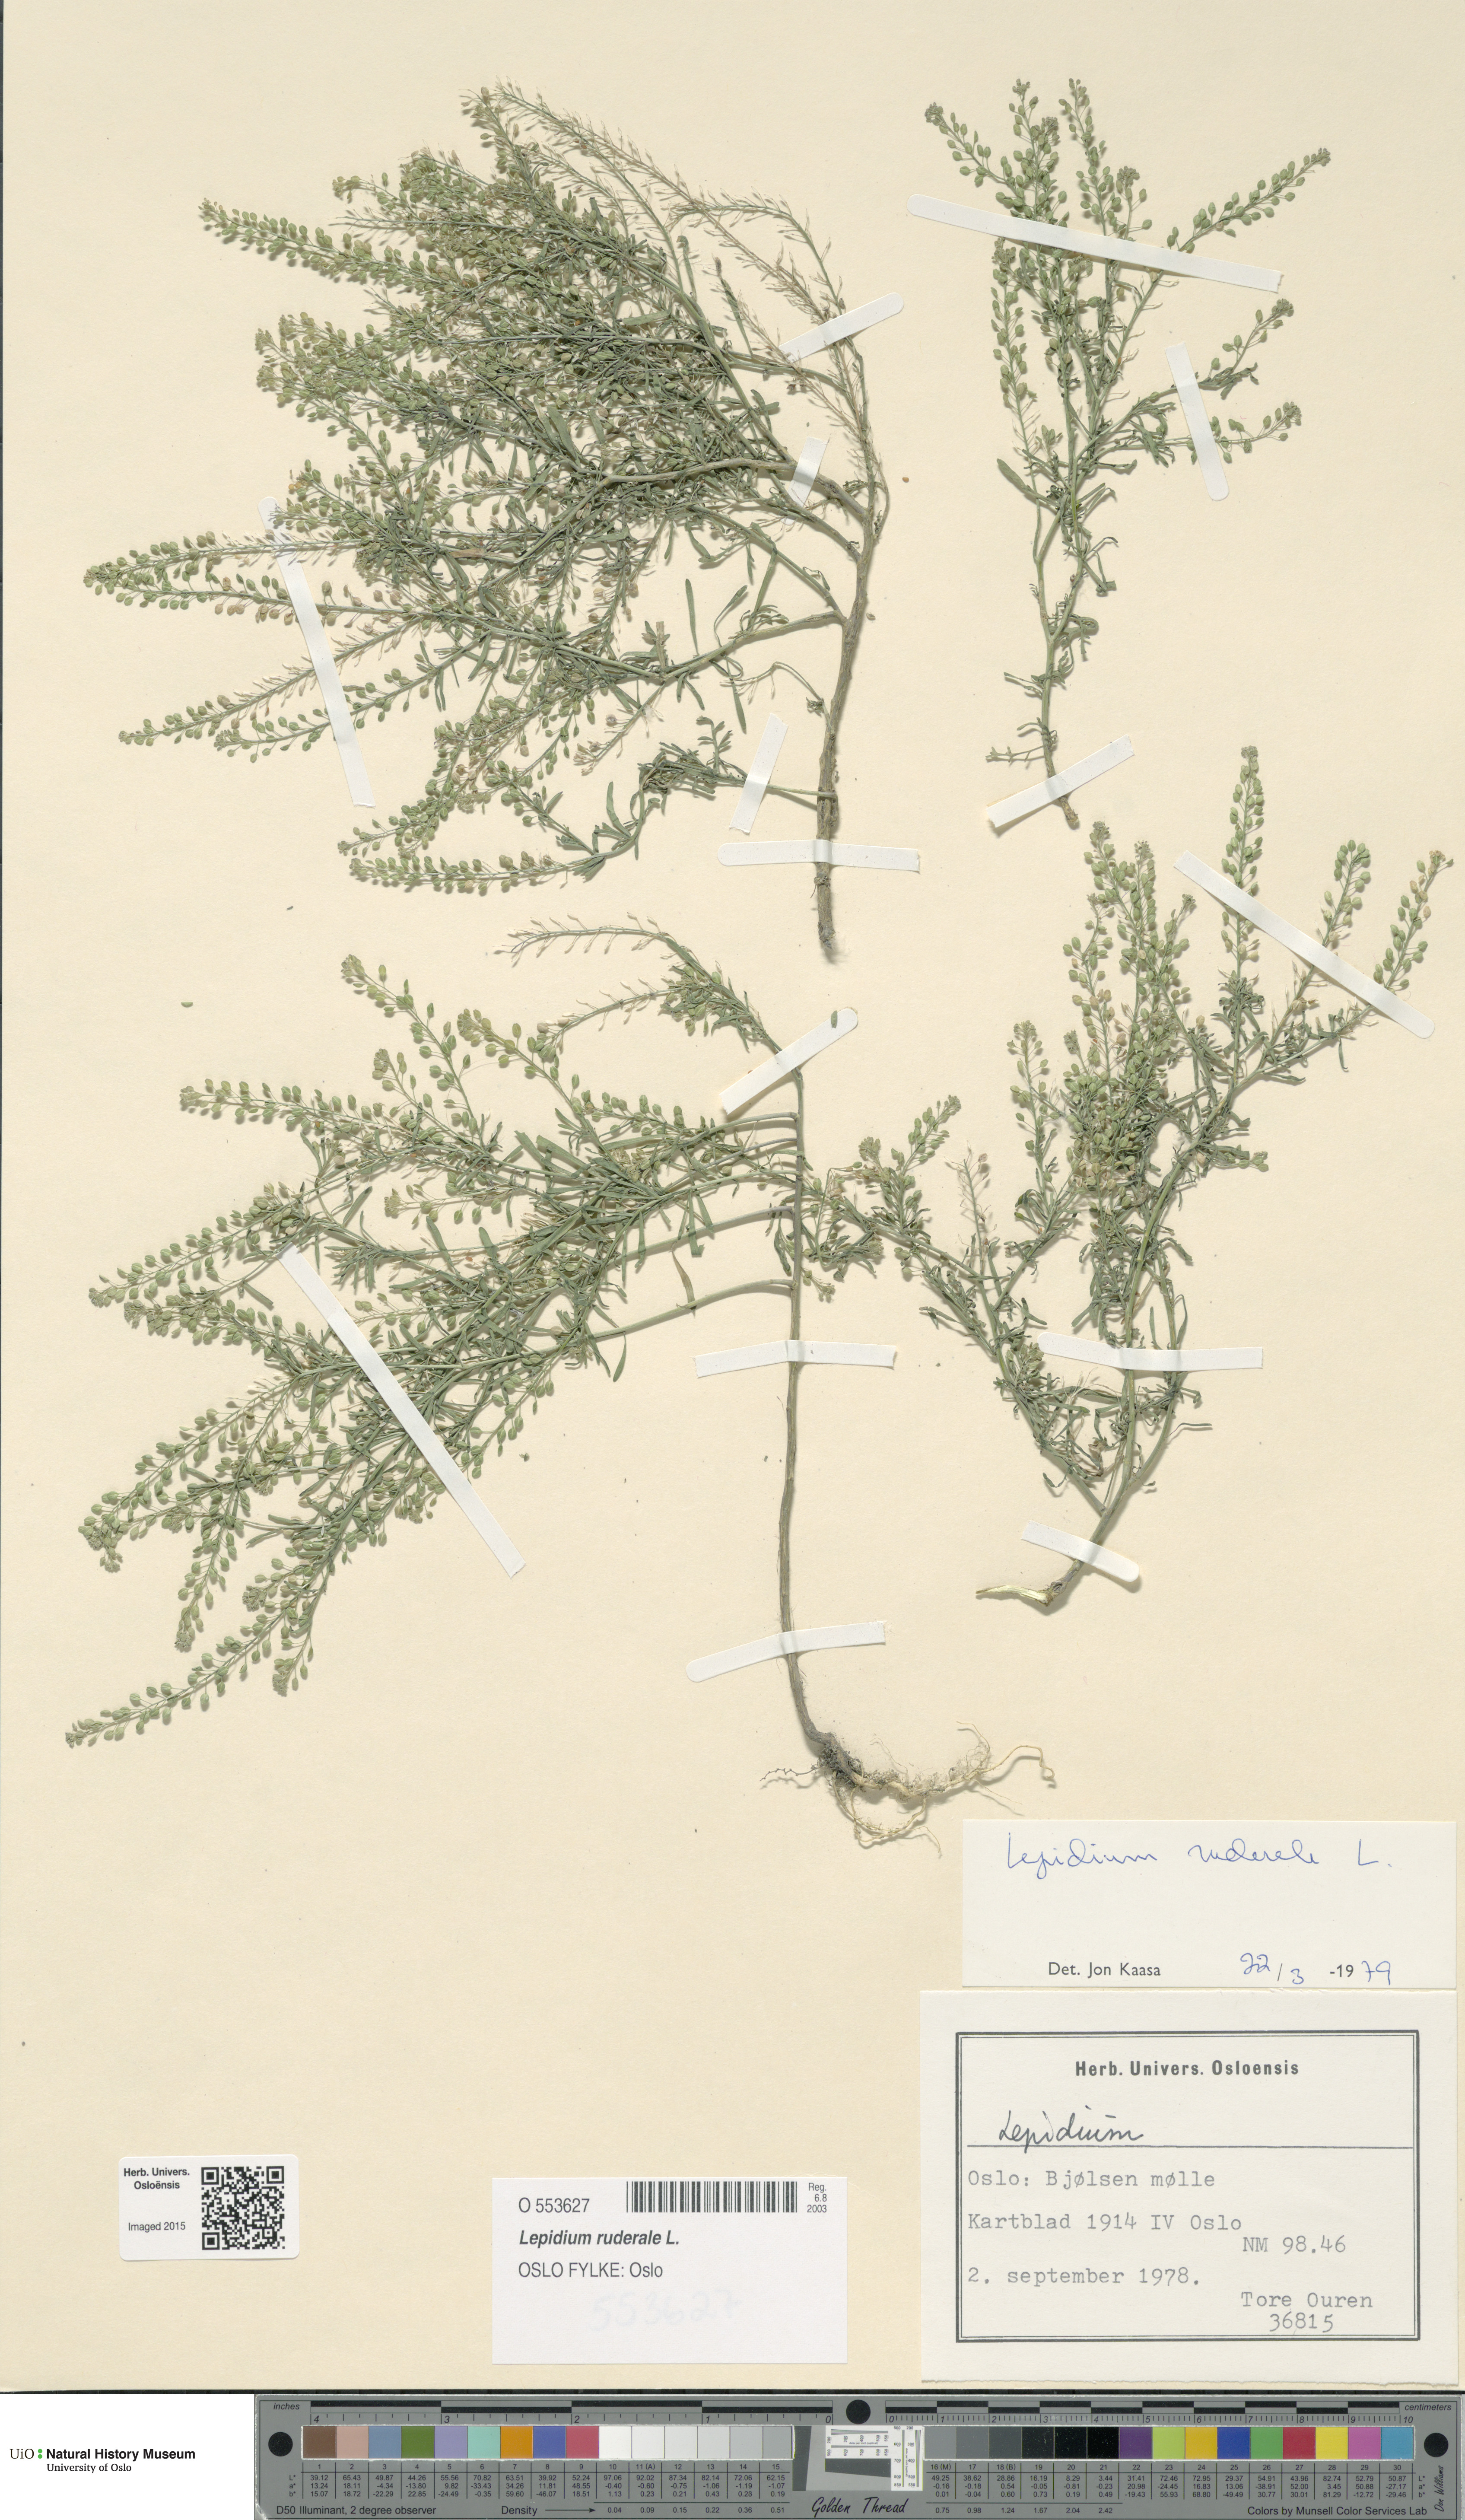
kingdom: Plantae
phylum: Tracheophyta
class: Magnoliopsida
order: Brassicales
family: Brassicaceae
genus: Lepidium
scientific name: Lepidium ruderale
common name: Narrow-leaved pepperwort
